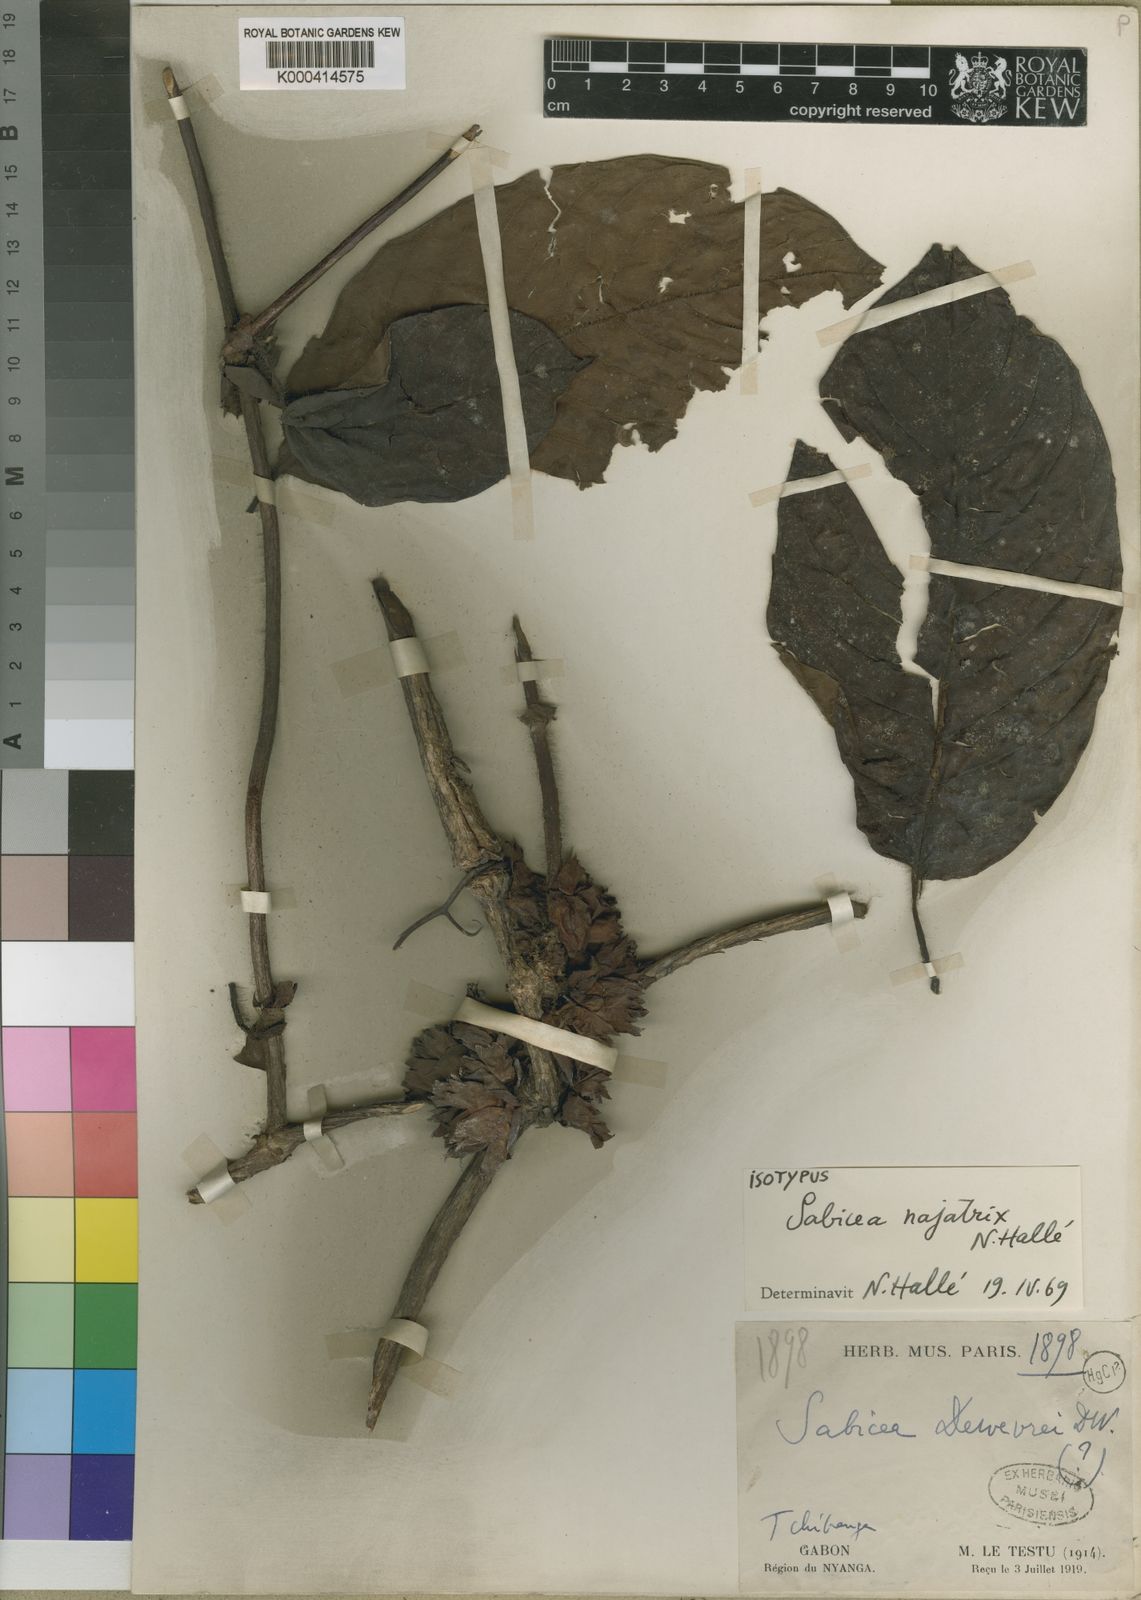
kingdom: Plantae
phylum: Tracheophyta
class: Magnoliopsida
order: Gentianales
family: Rubiaceae
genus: Sabicea
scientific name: Sabicea
